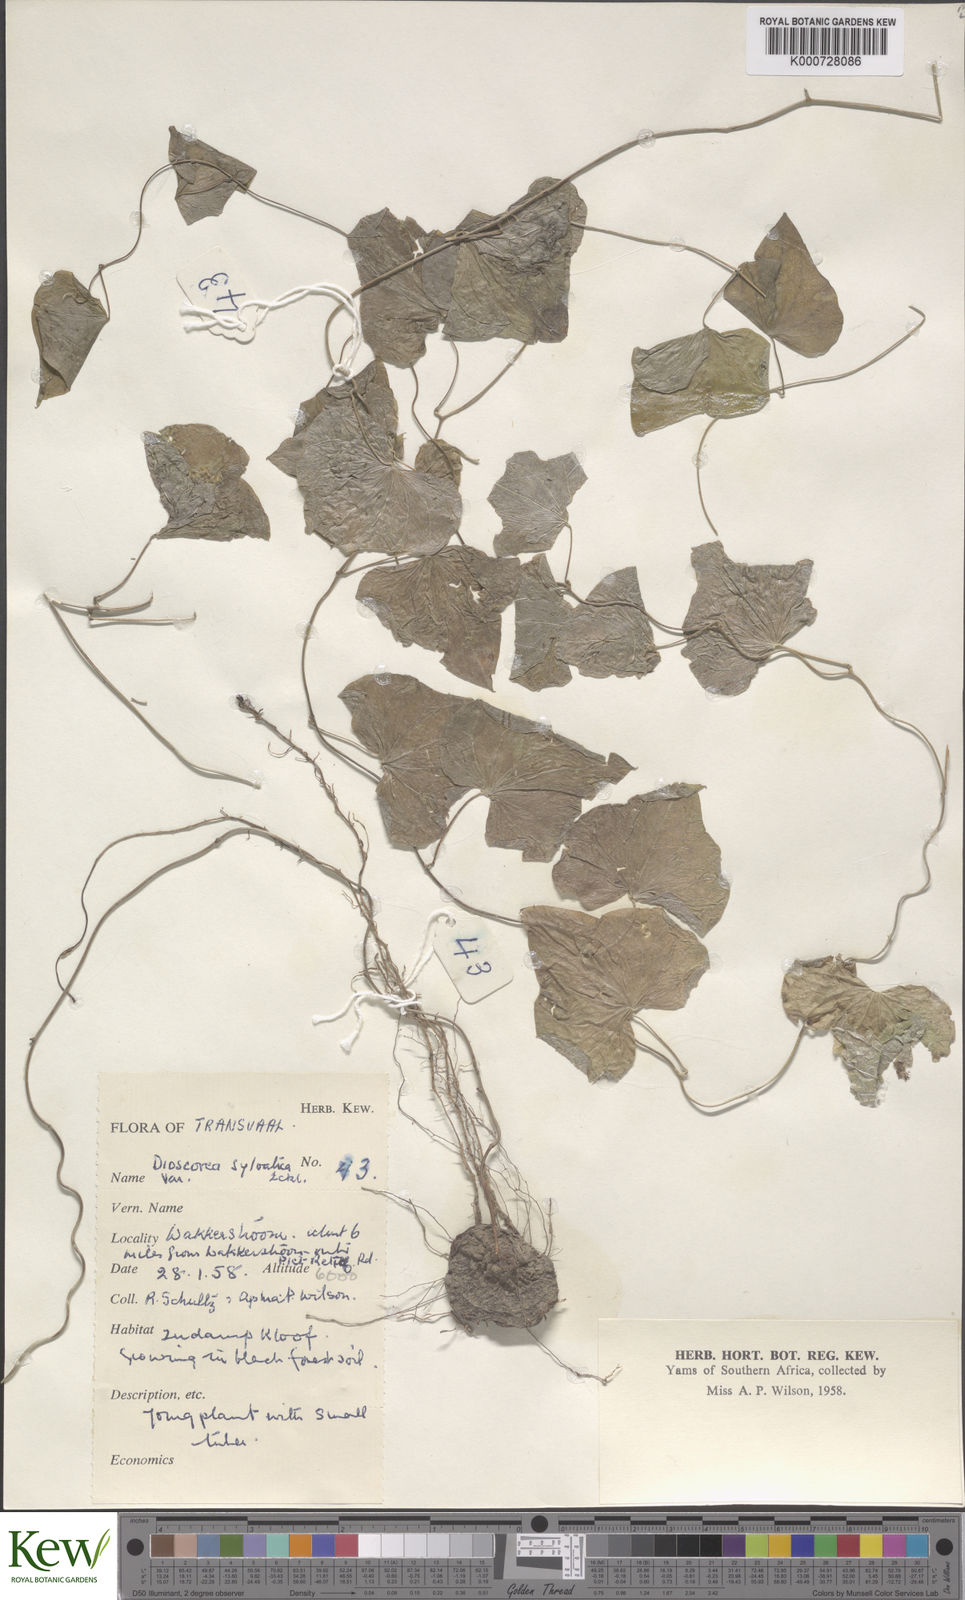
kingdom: Plantae
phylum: Tracheophyta
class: Liliopsida
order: Dioscoreales
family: Dioscoreaceae
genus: Dioscorea
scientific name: Dioscorea sylvatica
